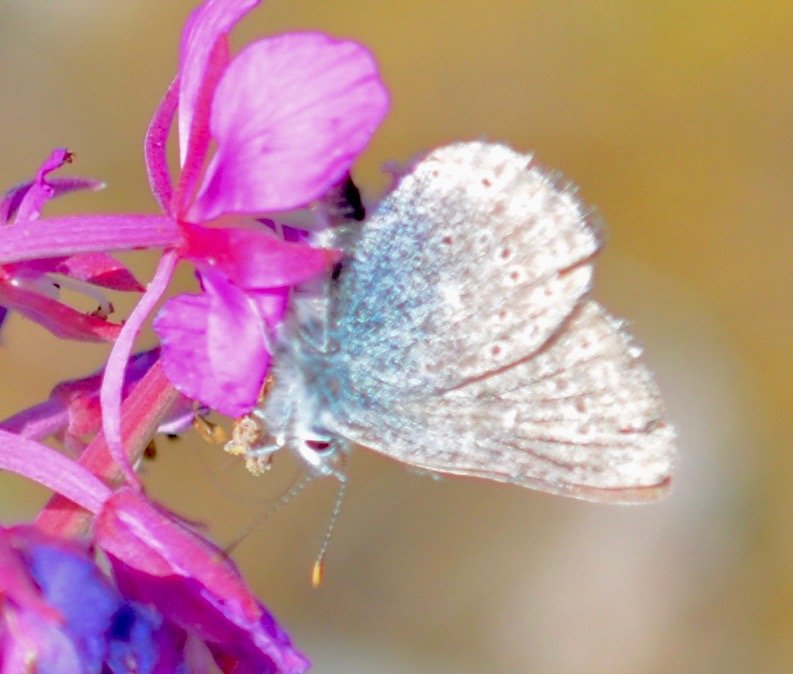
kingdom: Animalia
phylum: Arthropoda
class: Insecta
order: Lepidoptera
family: Lycaenidae
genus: Plebejus
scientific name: Plebejus saepiolus
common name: Greenish Blue
